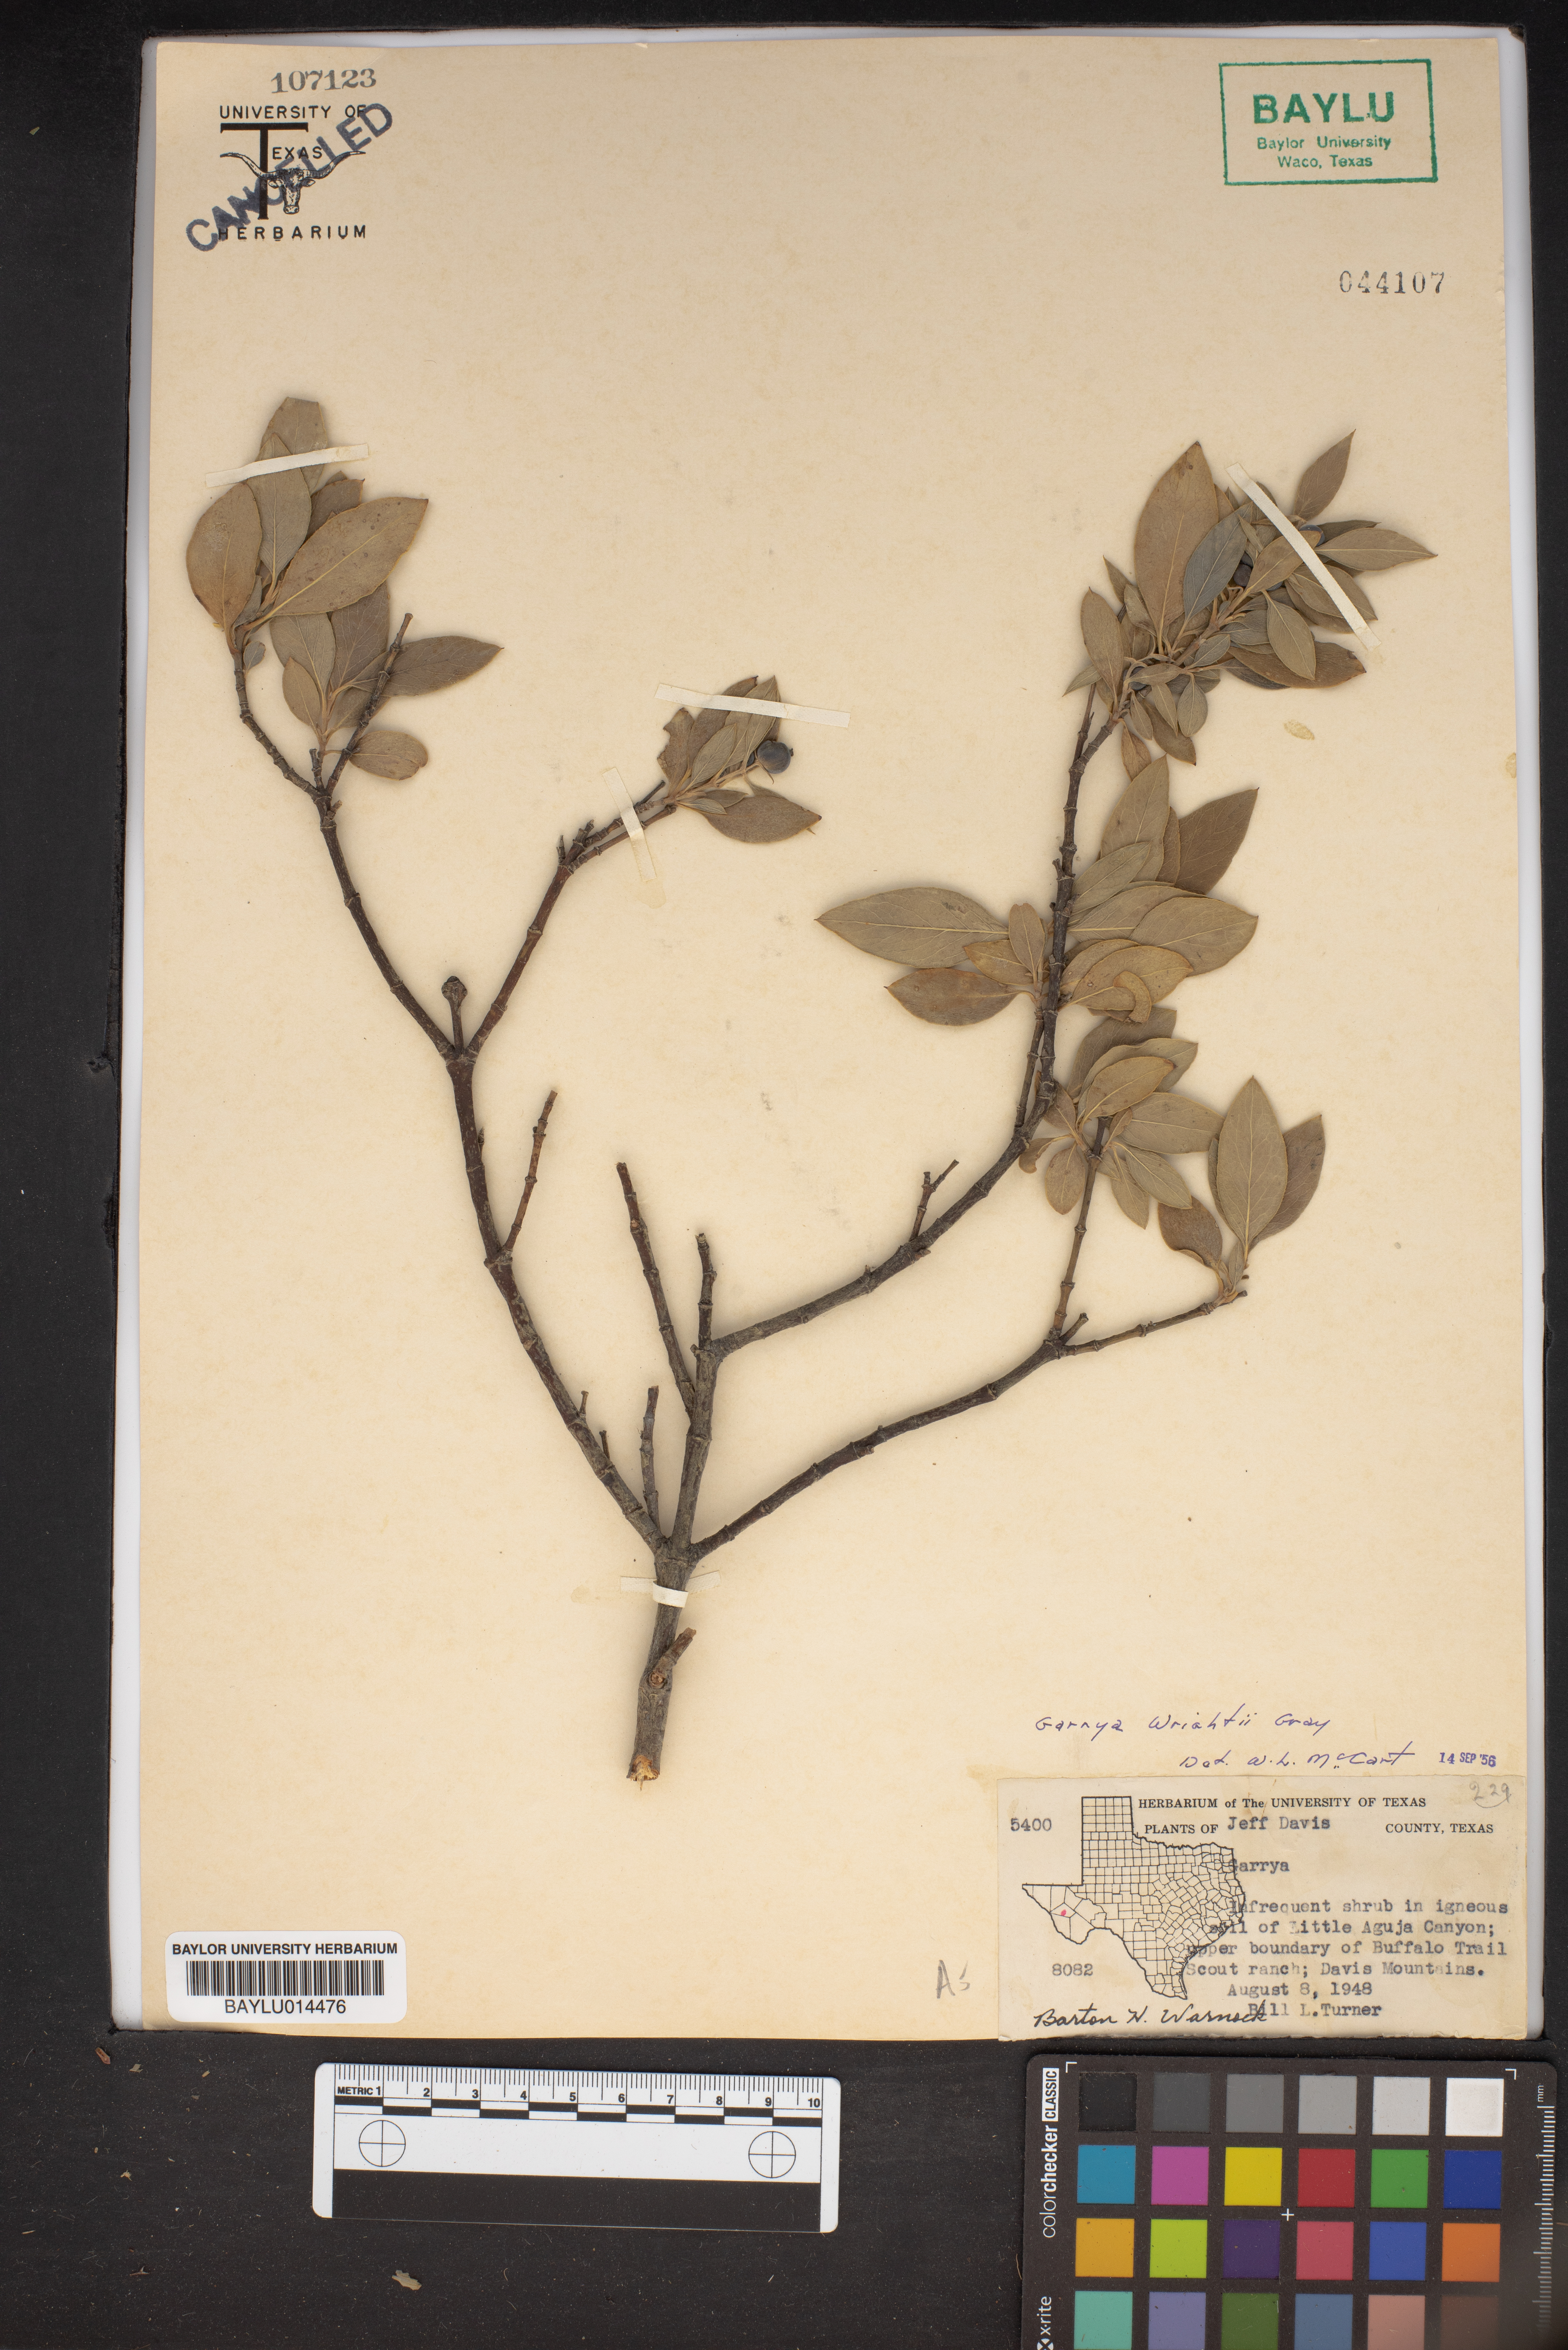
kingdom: Plantae
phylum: Tracheophyta
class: Magnoliopsida
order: Garryales
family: Garryaceae
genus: Garrya
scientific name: Garrya
